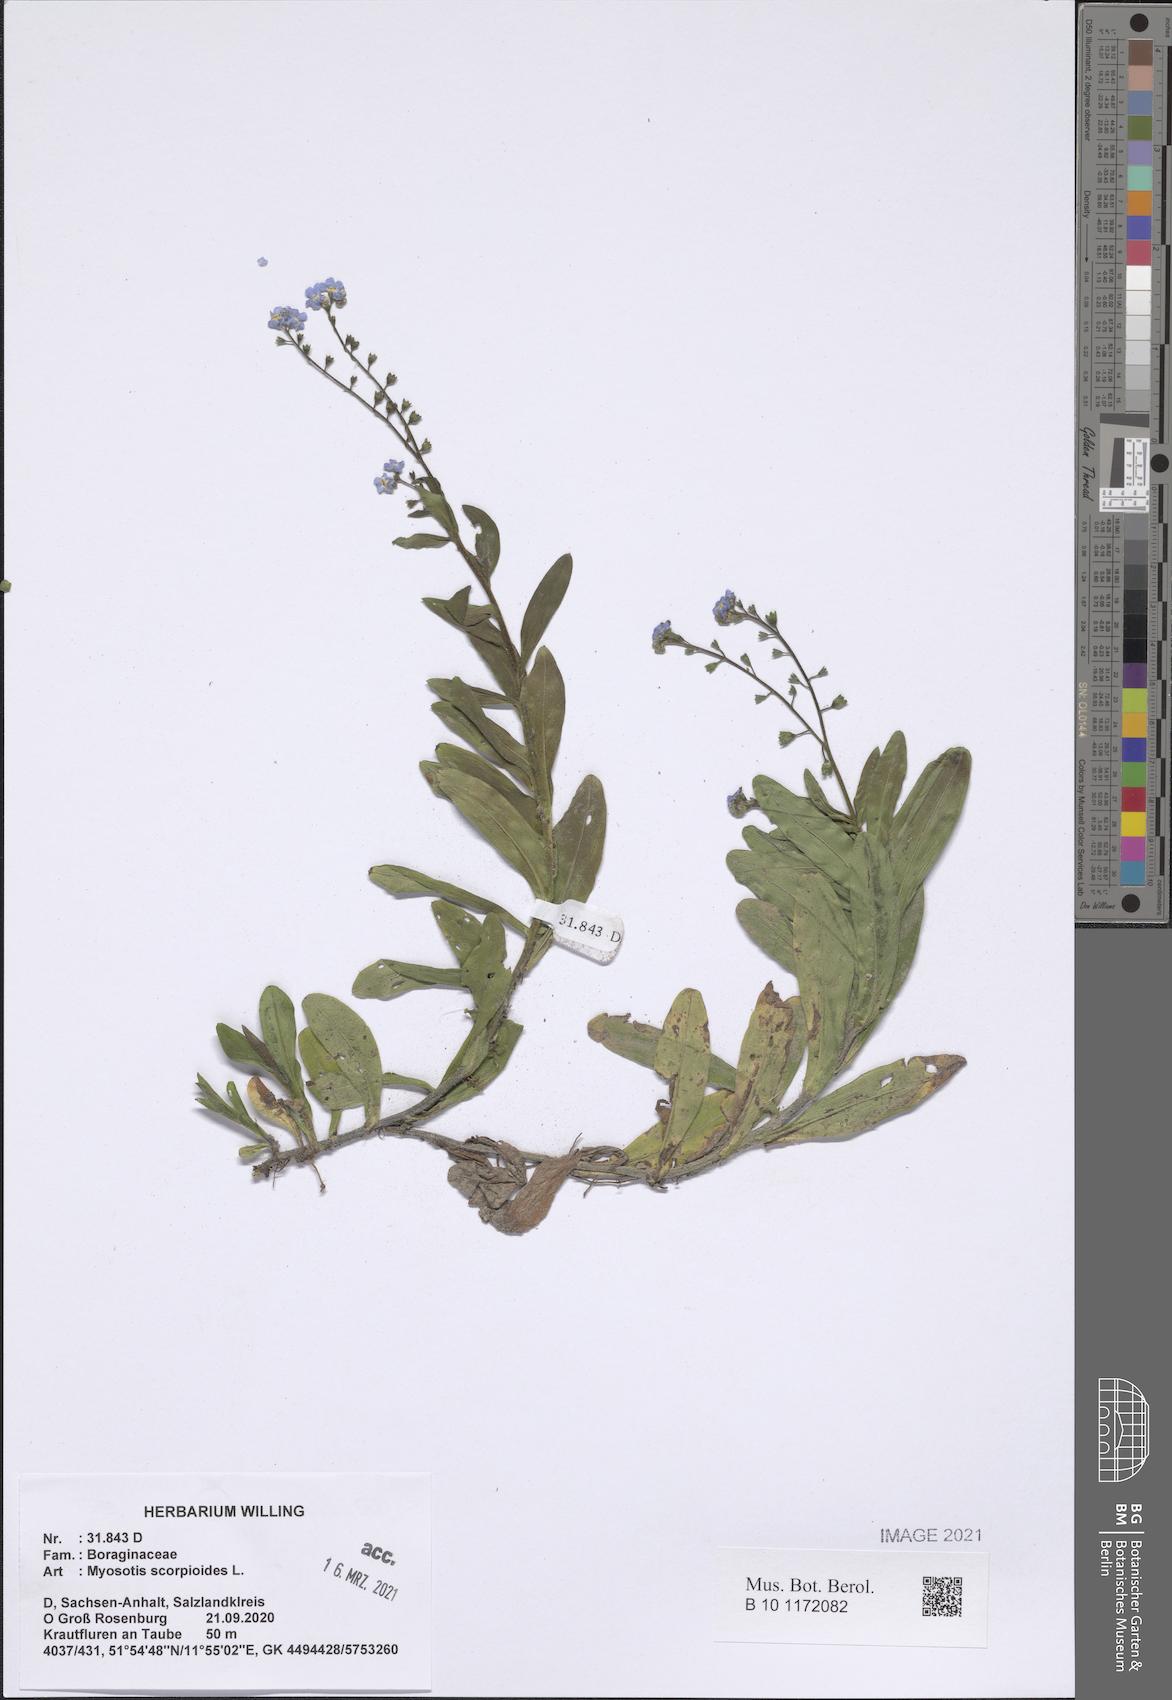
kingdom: Plantae
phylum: Tracheophyta
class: Magnoliopsida
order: Boraginales
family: Boraginaceae
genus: Myosotis
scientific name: Myosotis scorpioides
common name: Water forget-me-not
